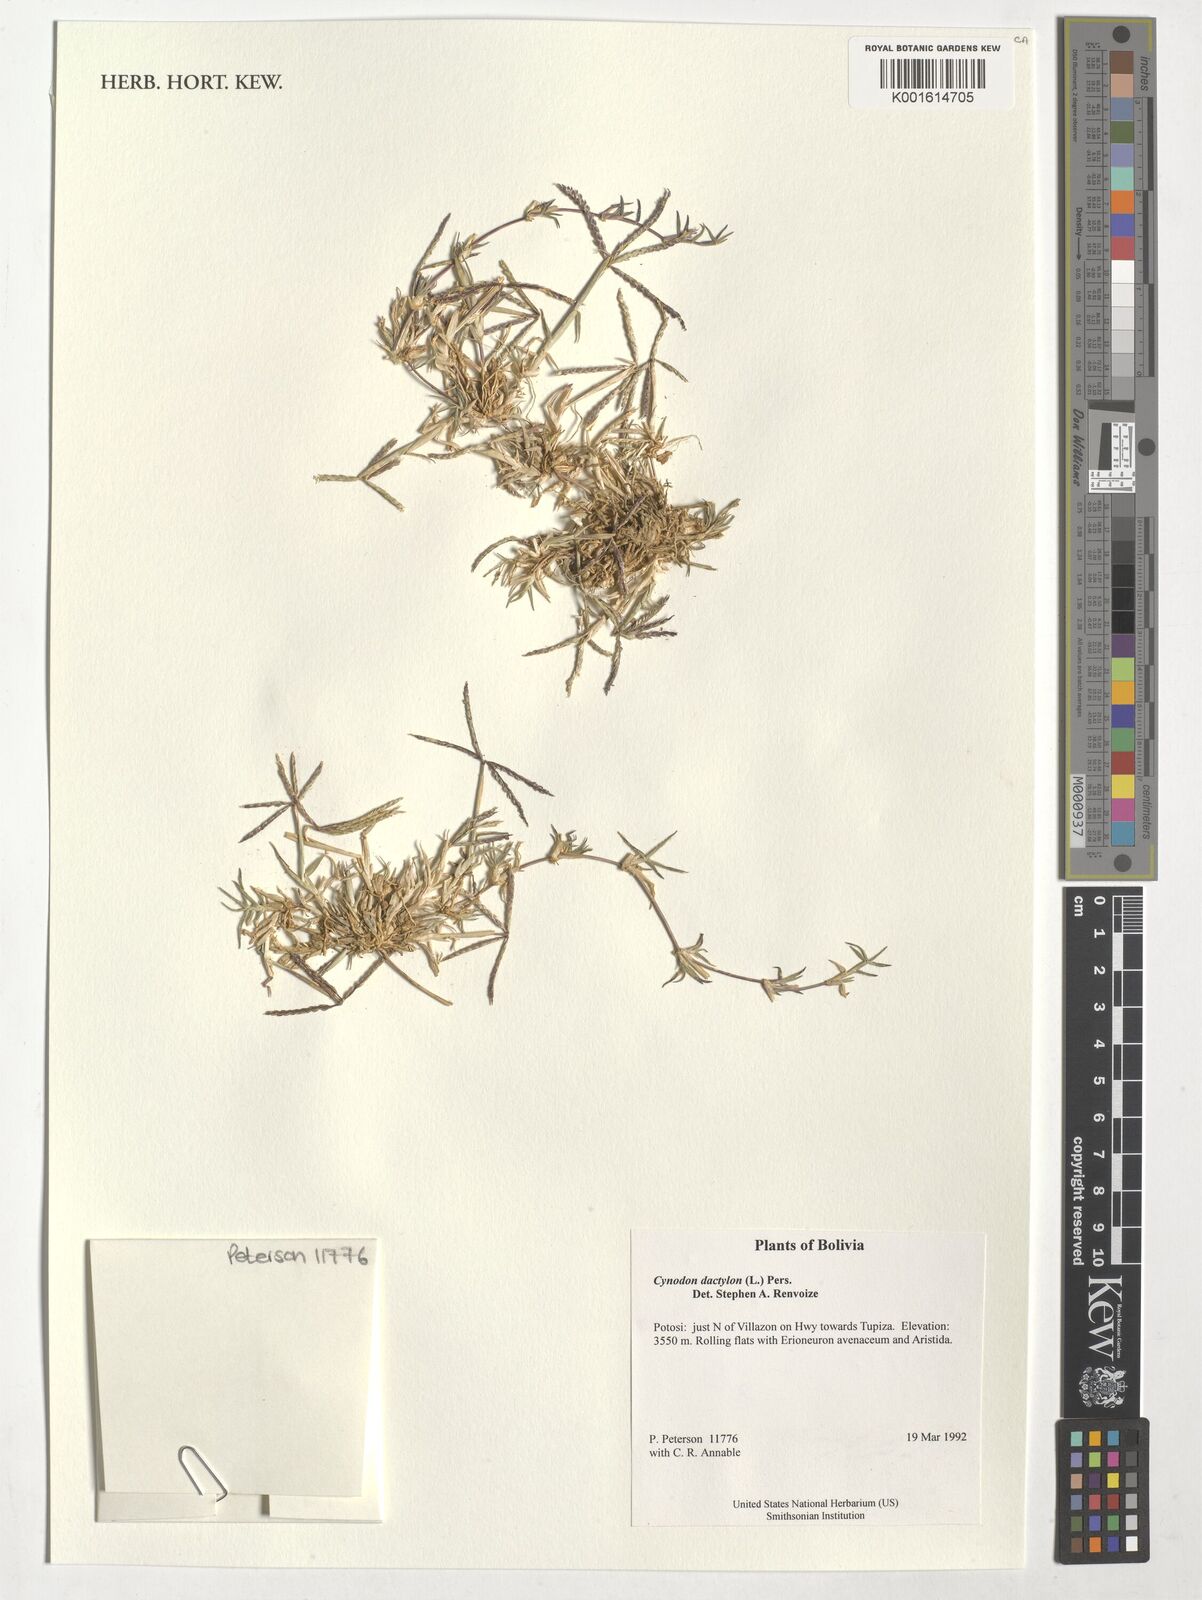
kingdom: Plantae
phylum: Tracheophyta
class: Liliopsida
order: Poales
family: Poaceae
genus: Cynodon
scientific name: Cynodon dactylon
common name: Bermuda grass
